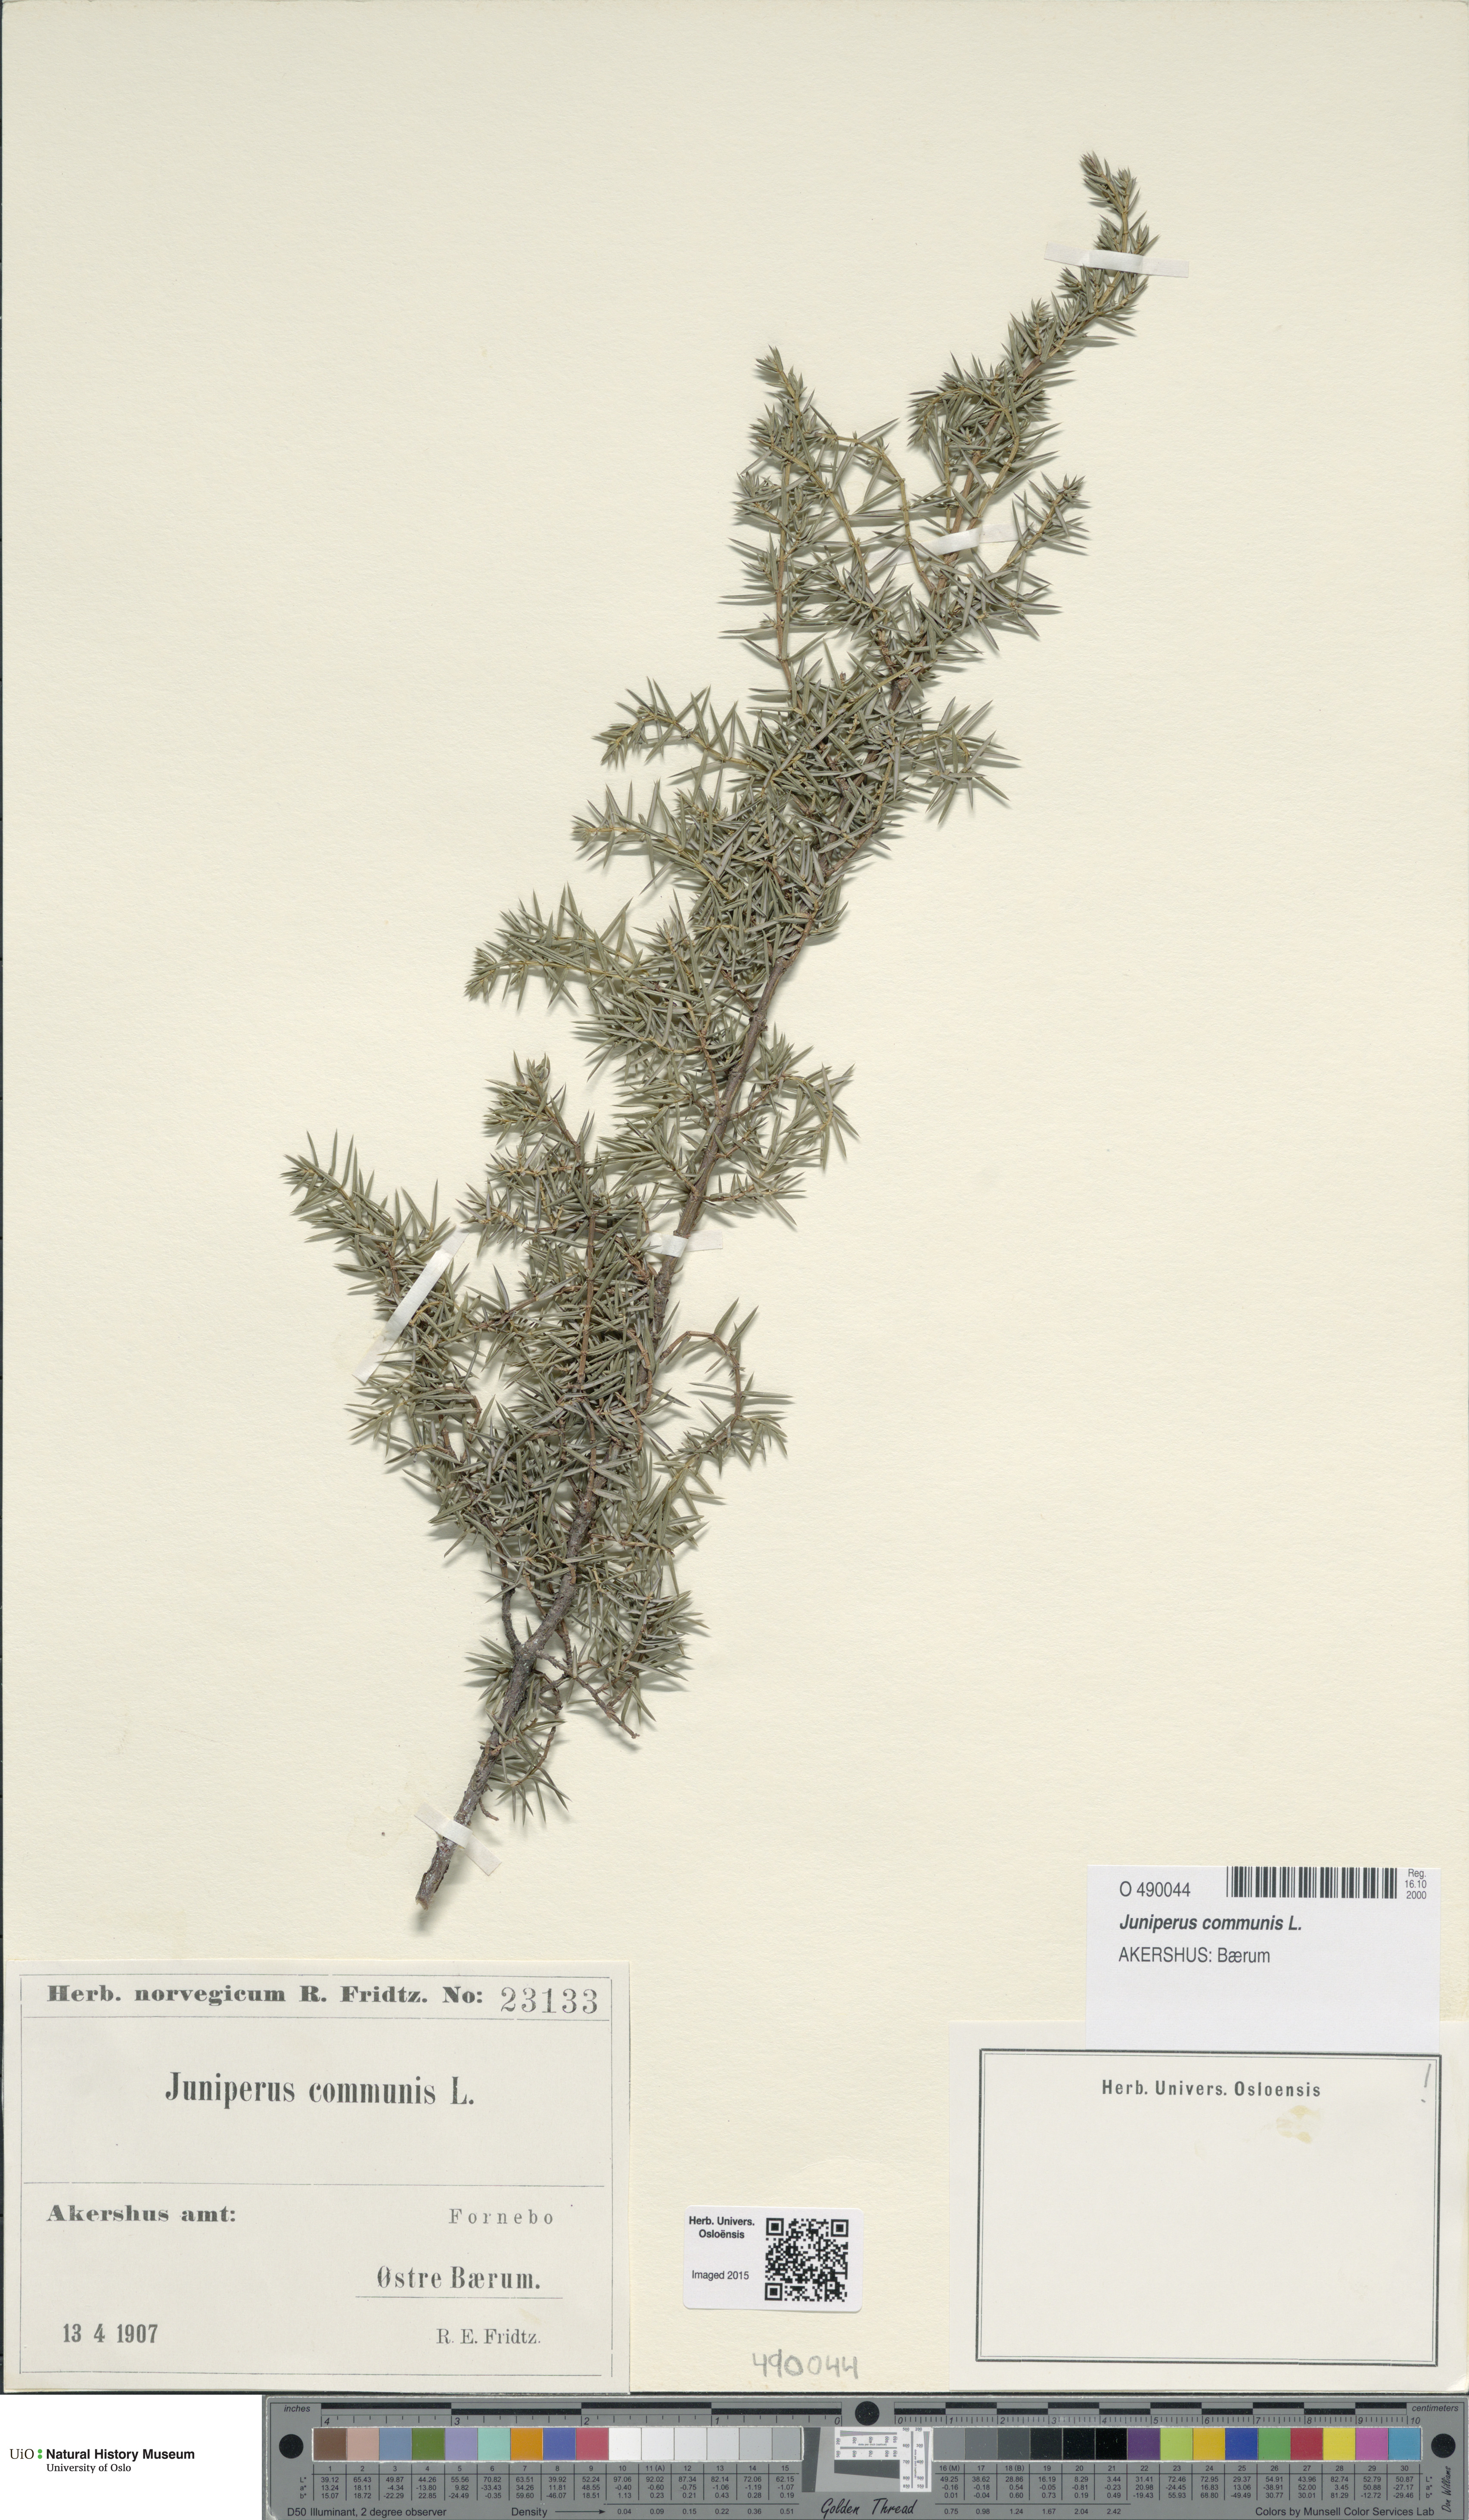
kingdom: Plantae
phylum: Tracheophyta
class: Pinopsida
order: Pinales
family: Cupressaceae
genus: Juniperus
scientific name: Juniperus communis
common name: Common juniper
